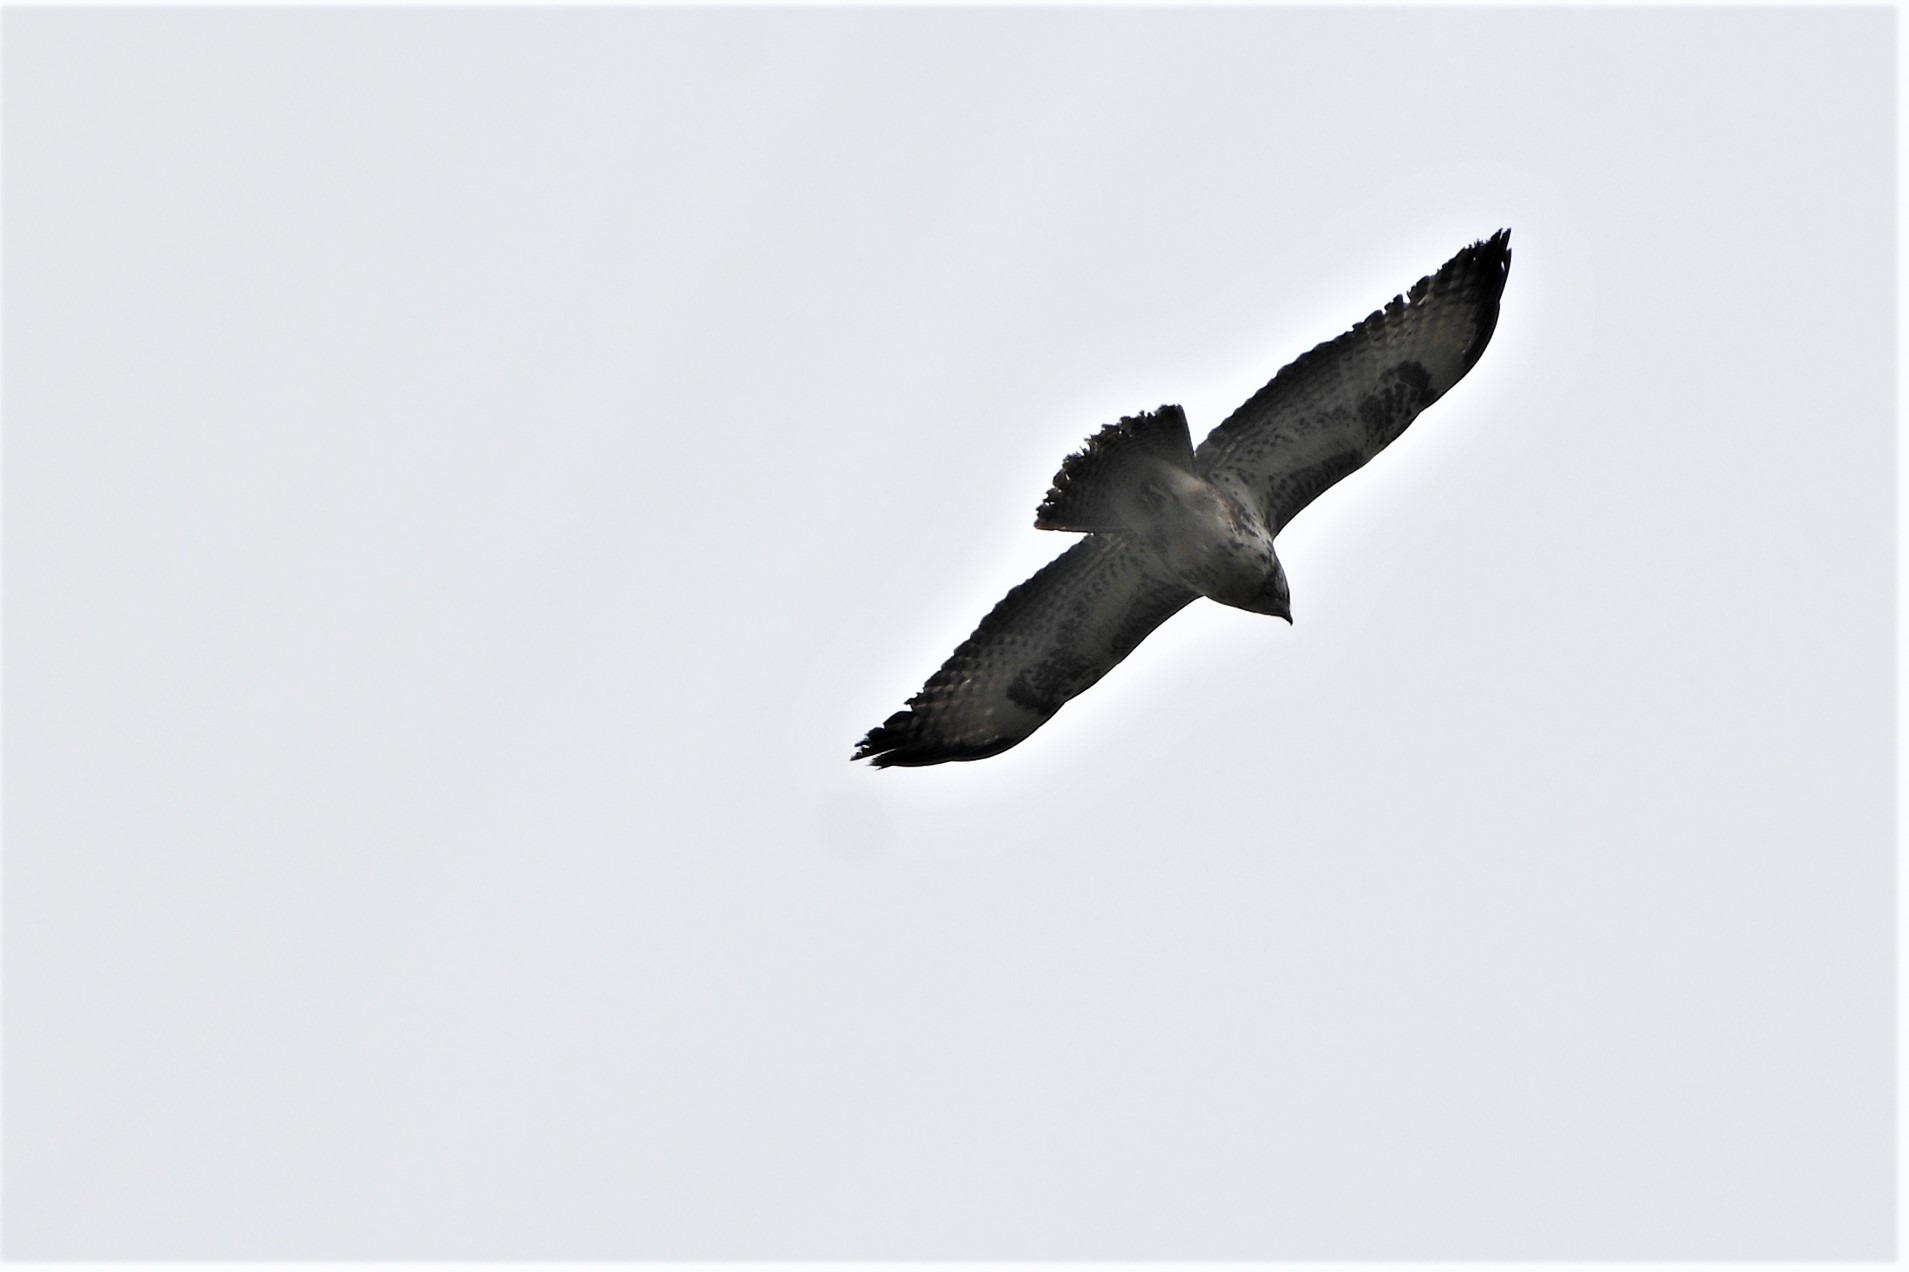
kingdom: Animalia
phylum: Chordata
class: Aves
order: Accipitriformes
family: Accipitridae
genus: Buteo
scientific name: Buteo buteo
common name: Musvåge
